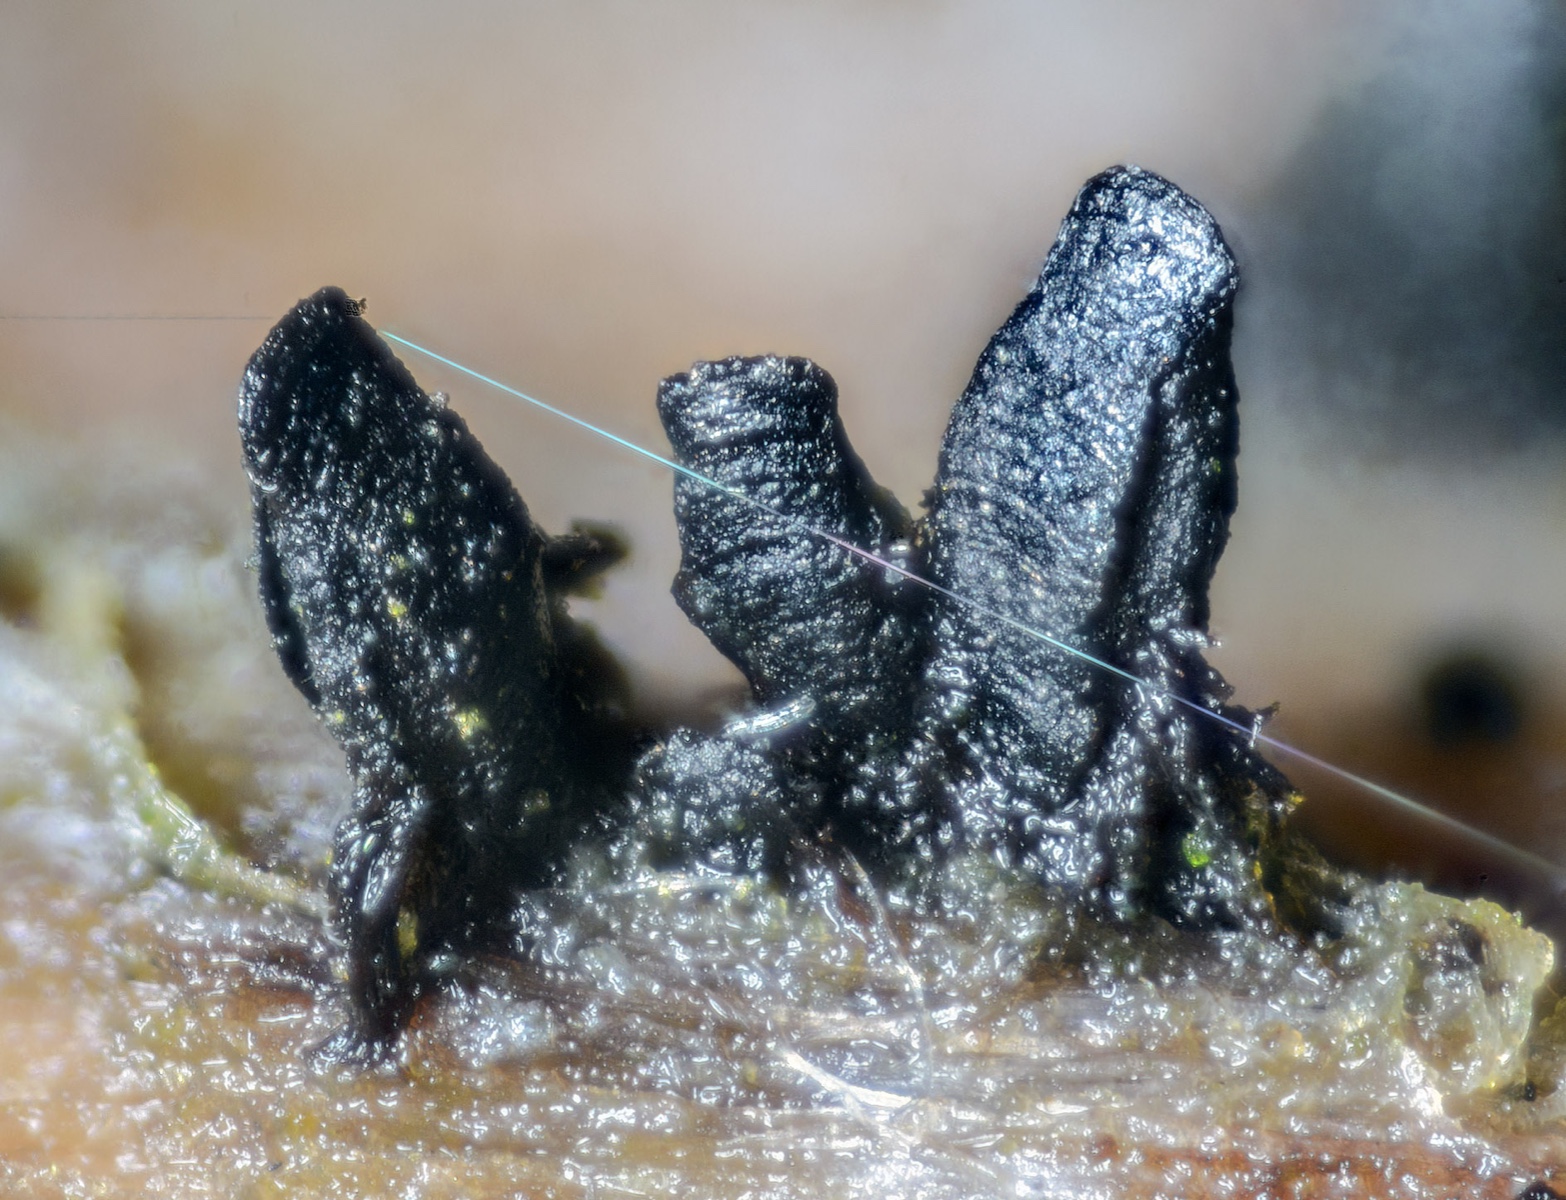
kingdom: Fungi
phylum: Ascomycota
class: Eurotiomycetes
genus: Glyphium
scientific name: Glyphium elatum
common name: kuløkse
